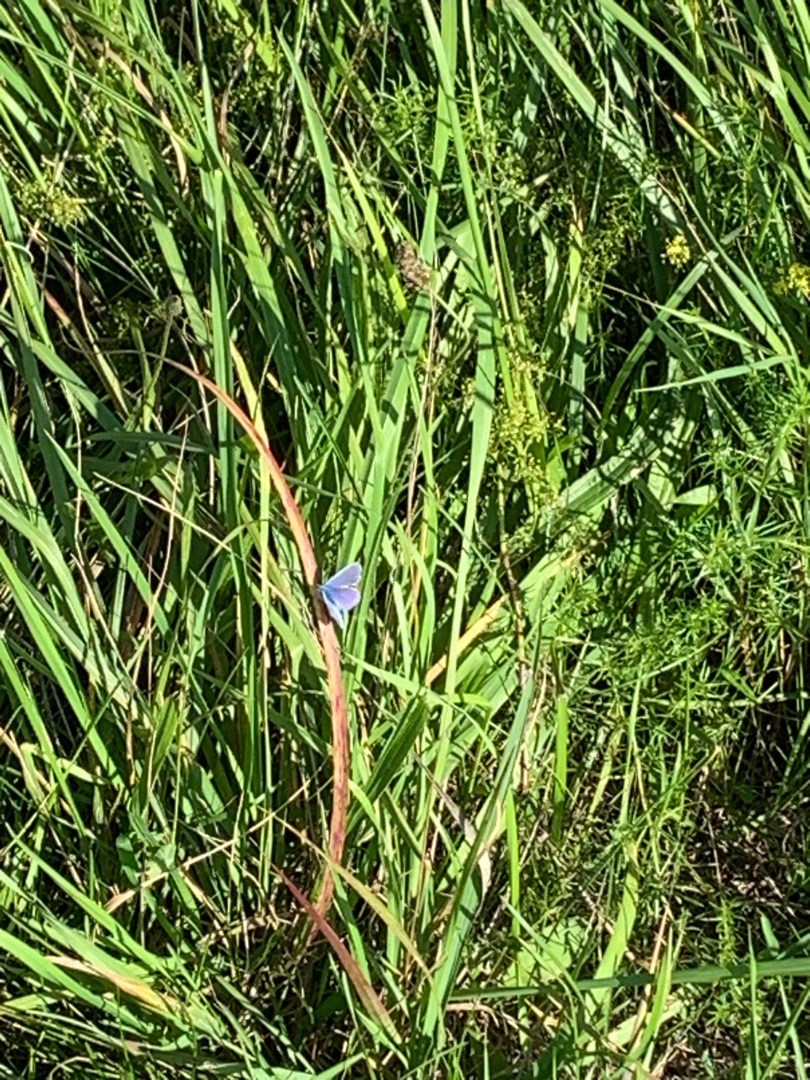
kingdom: Animalia
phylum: Arthropoda
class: Insecta
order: Lepidoptera
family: Lycaenidae
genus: Polyommatus
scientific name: Polyommatus icarus
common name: Almindelig blåfugl
